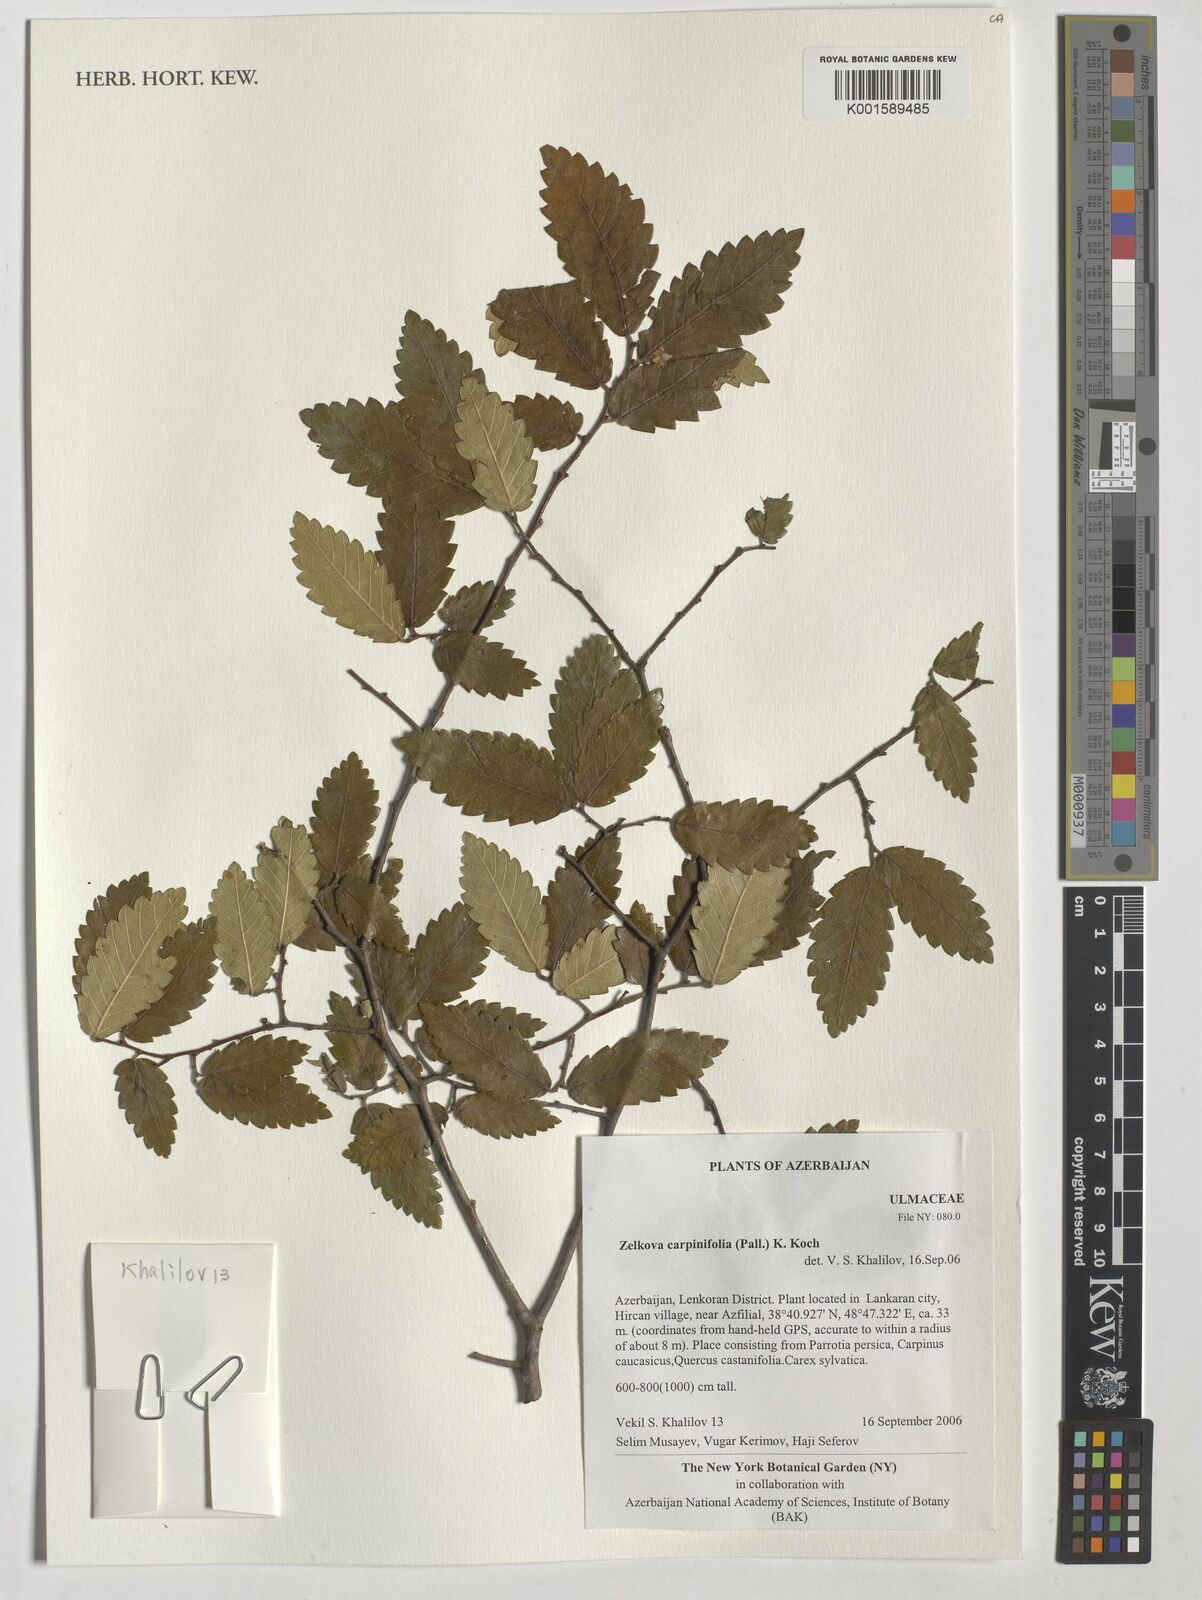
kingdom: Plantae
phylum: Tracheophyta
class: Magnoliopsida
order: Rosales
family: Ulmaceae
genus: Zelkova
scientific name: Zelkova carpinifolia
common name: Caucasian elm
